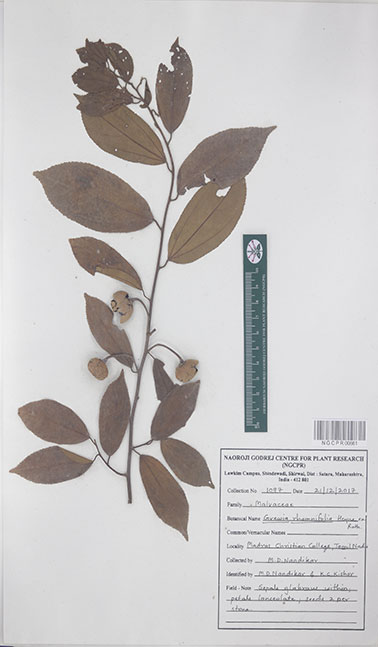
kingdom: Plantae
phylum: Tracheophyta
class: Magnoliopsida
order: Malvales
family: Malvaceae
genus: Grewia
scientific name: Grewia rhamnifolia
